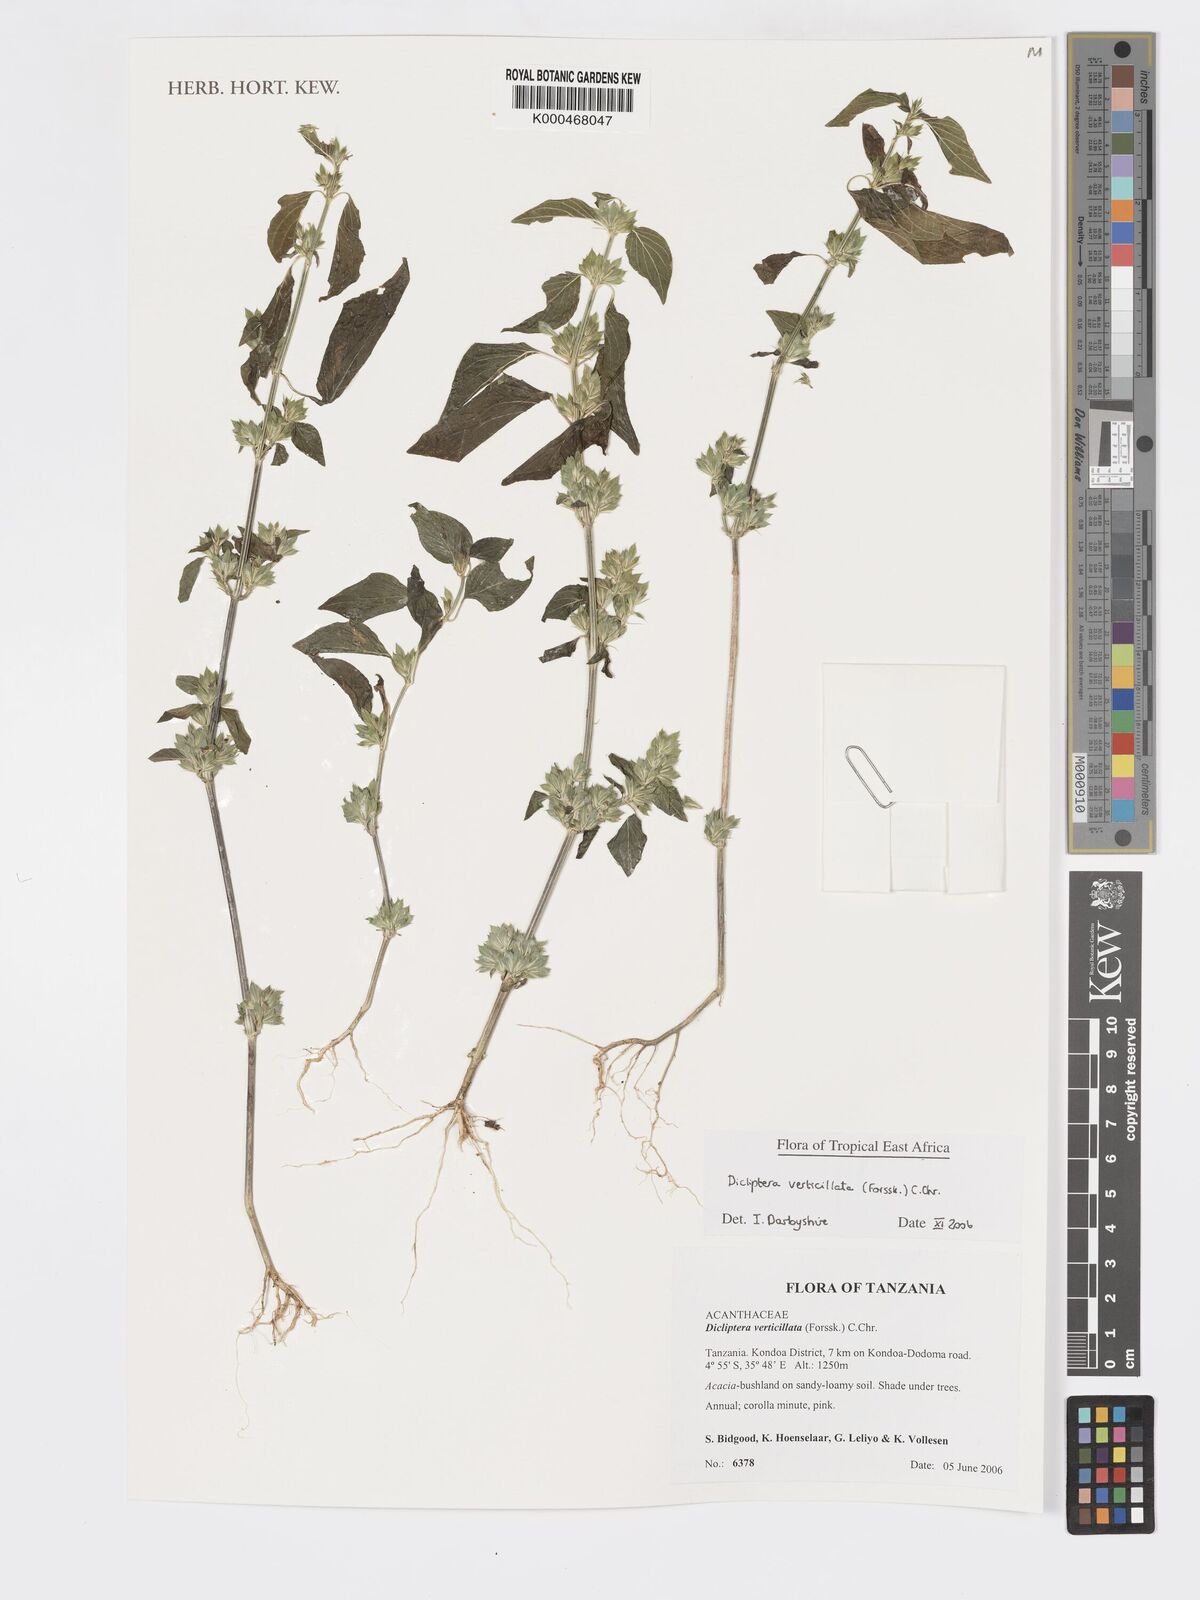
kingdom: Plantae
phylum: Tracheophyta
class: Magnoliopsida
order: Lamiales
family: Acanthaceae
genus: Dicliptera
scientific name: Dicliptera verticillata
